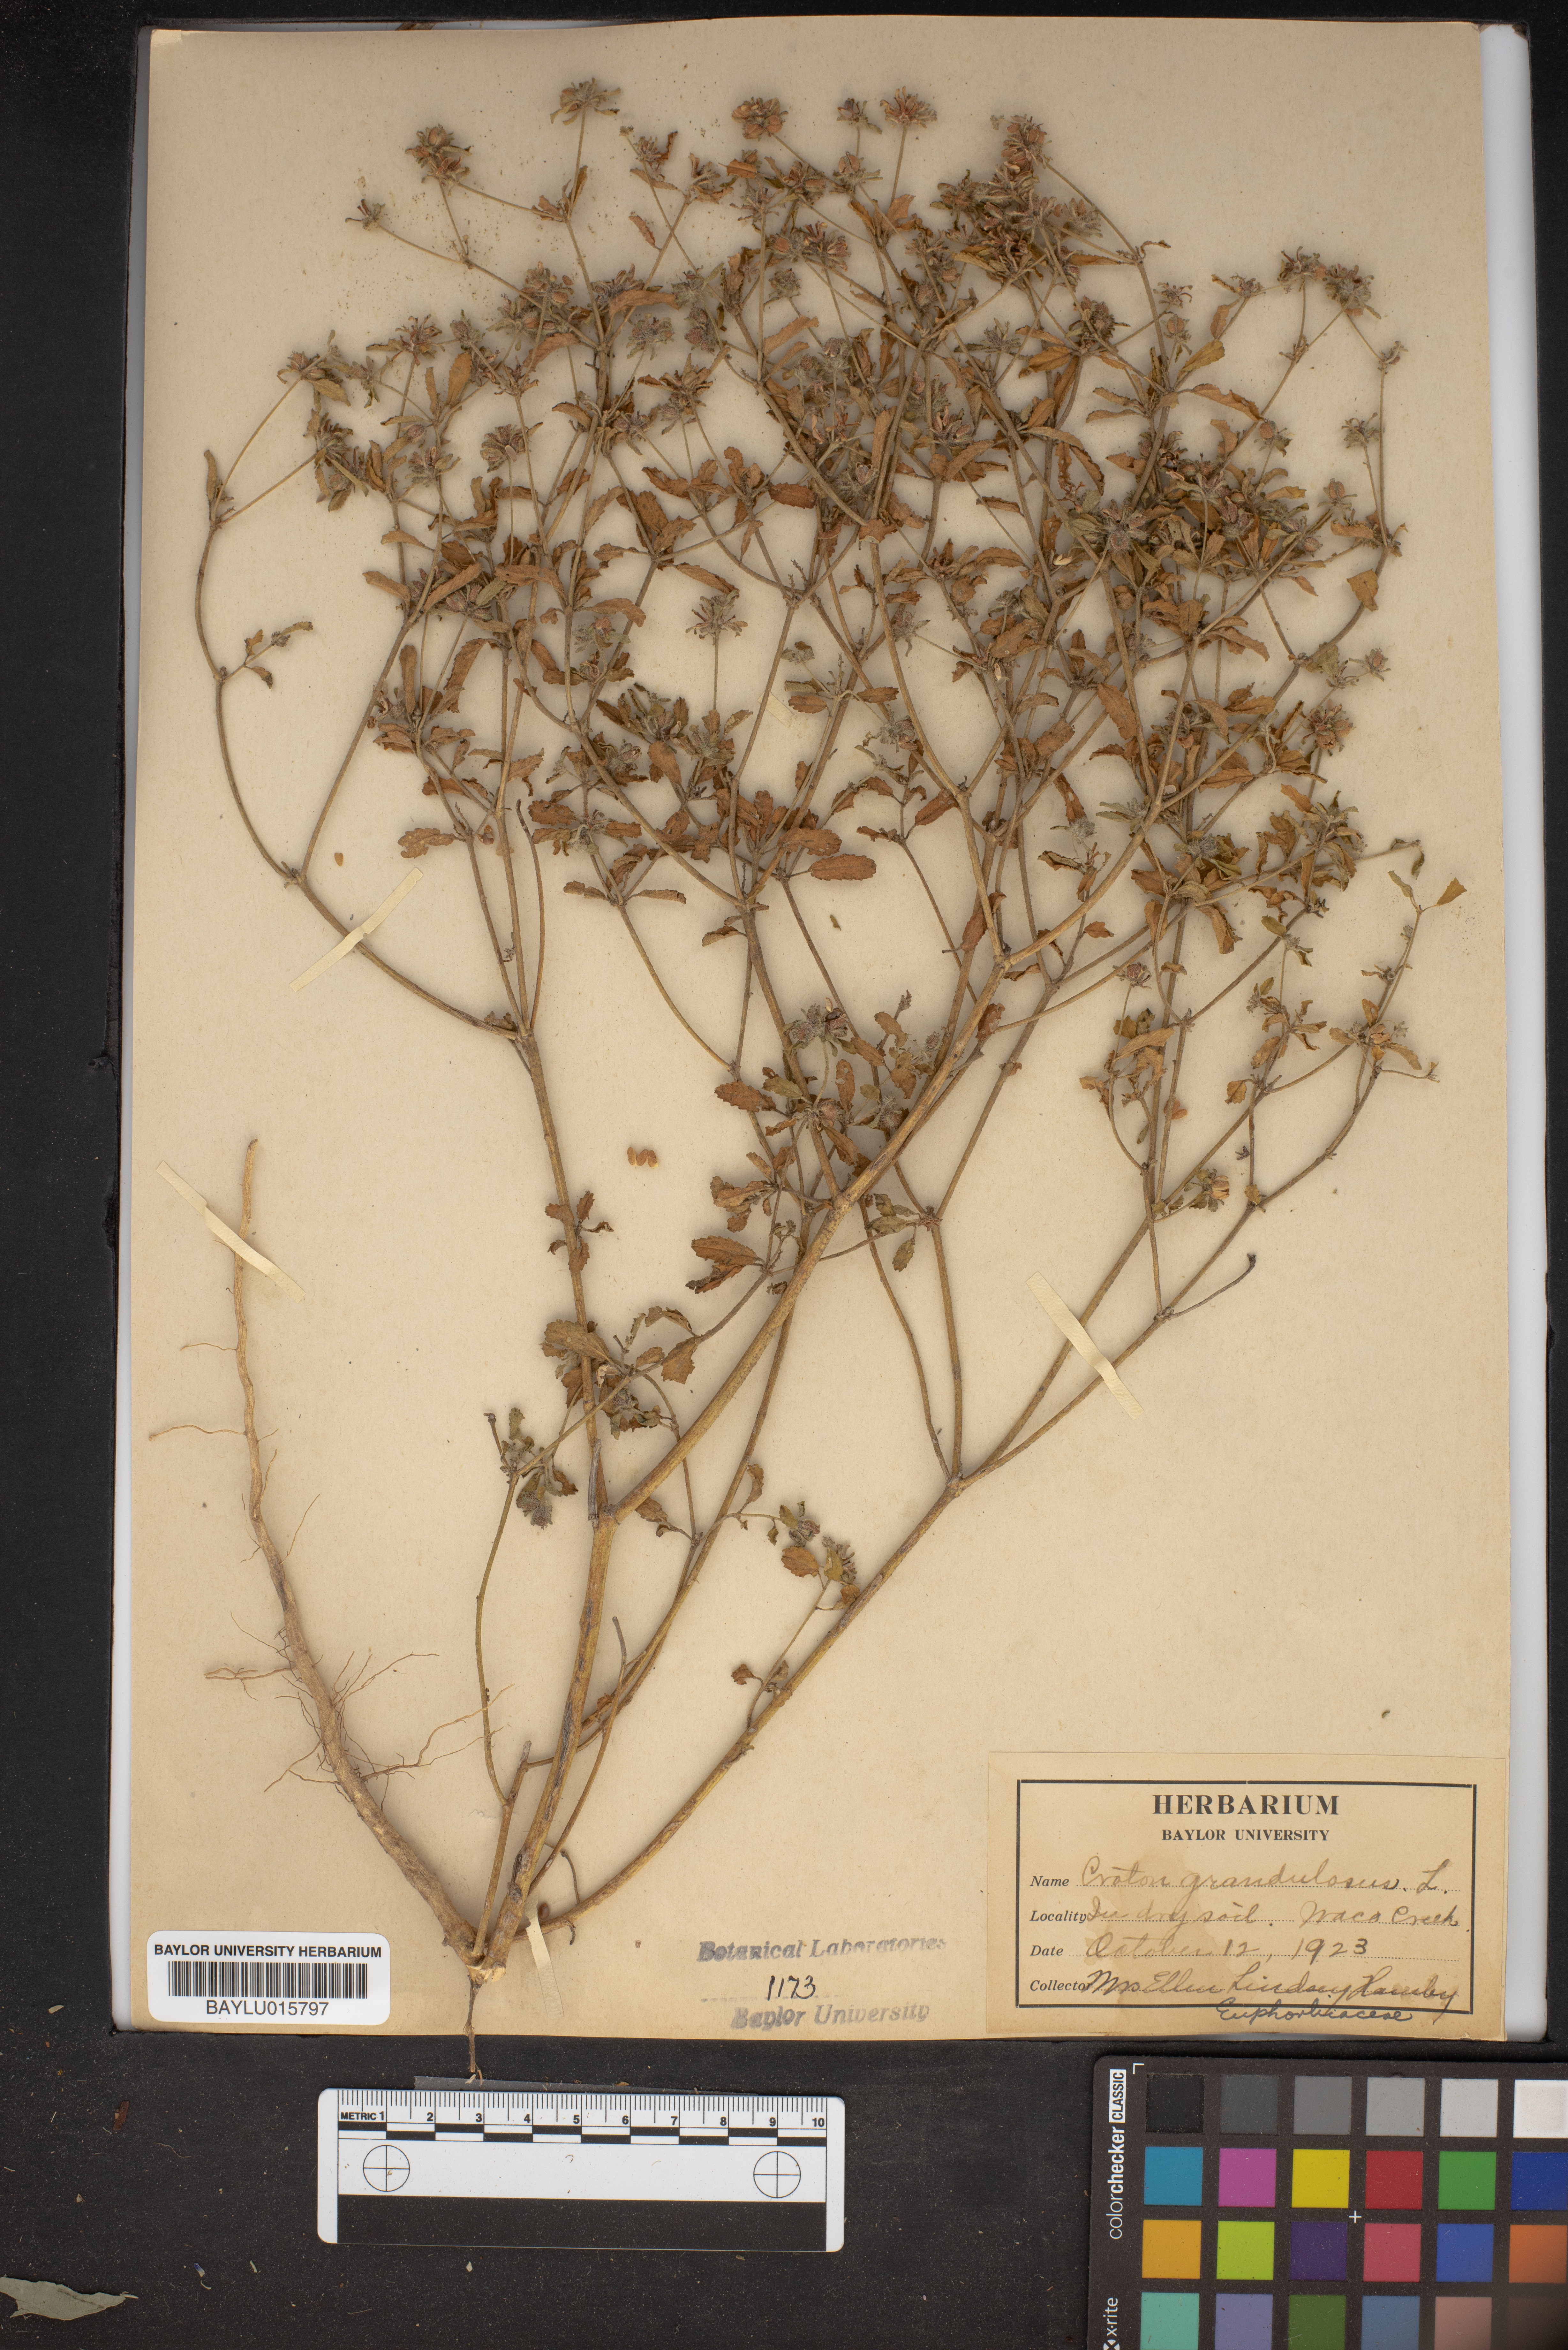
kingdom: Plantae
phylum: Tracheophyta
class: Magnoliopsida
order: Malpighiales
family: Euphorbiaceae
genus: Croton
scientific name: Croton grandulosus
